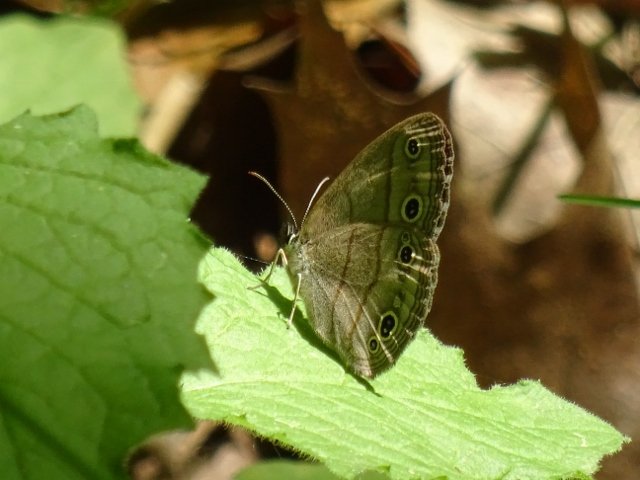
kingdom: Animalia
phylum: Arthropoda
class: Insecta
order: Lepidoptera
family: Nymphalidae
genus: Euptychia
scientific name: Euptychia cymela
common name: Little Wood Satyr
